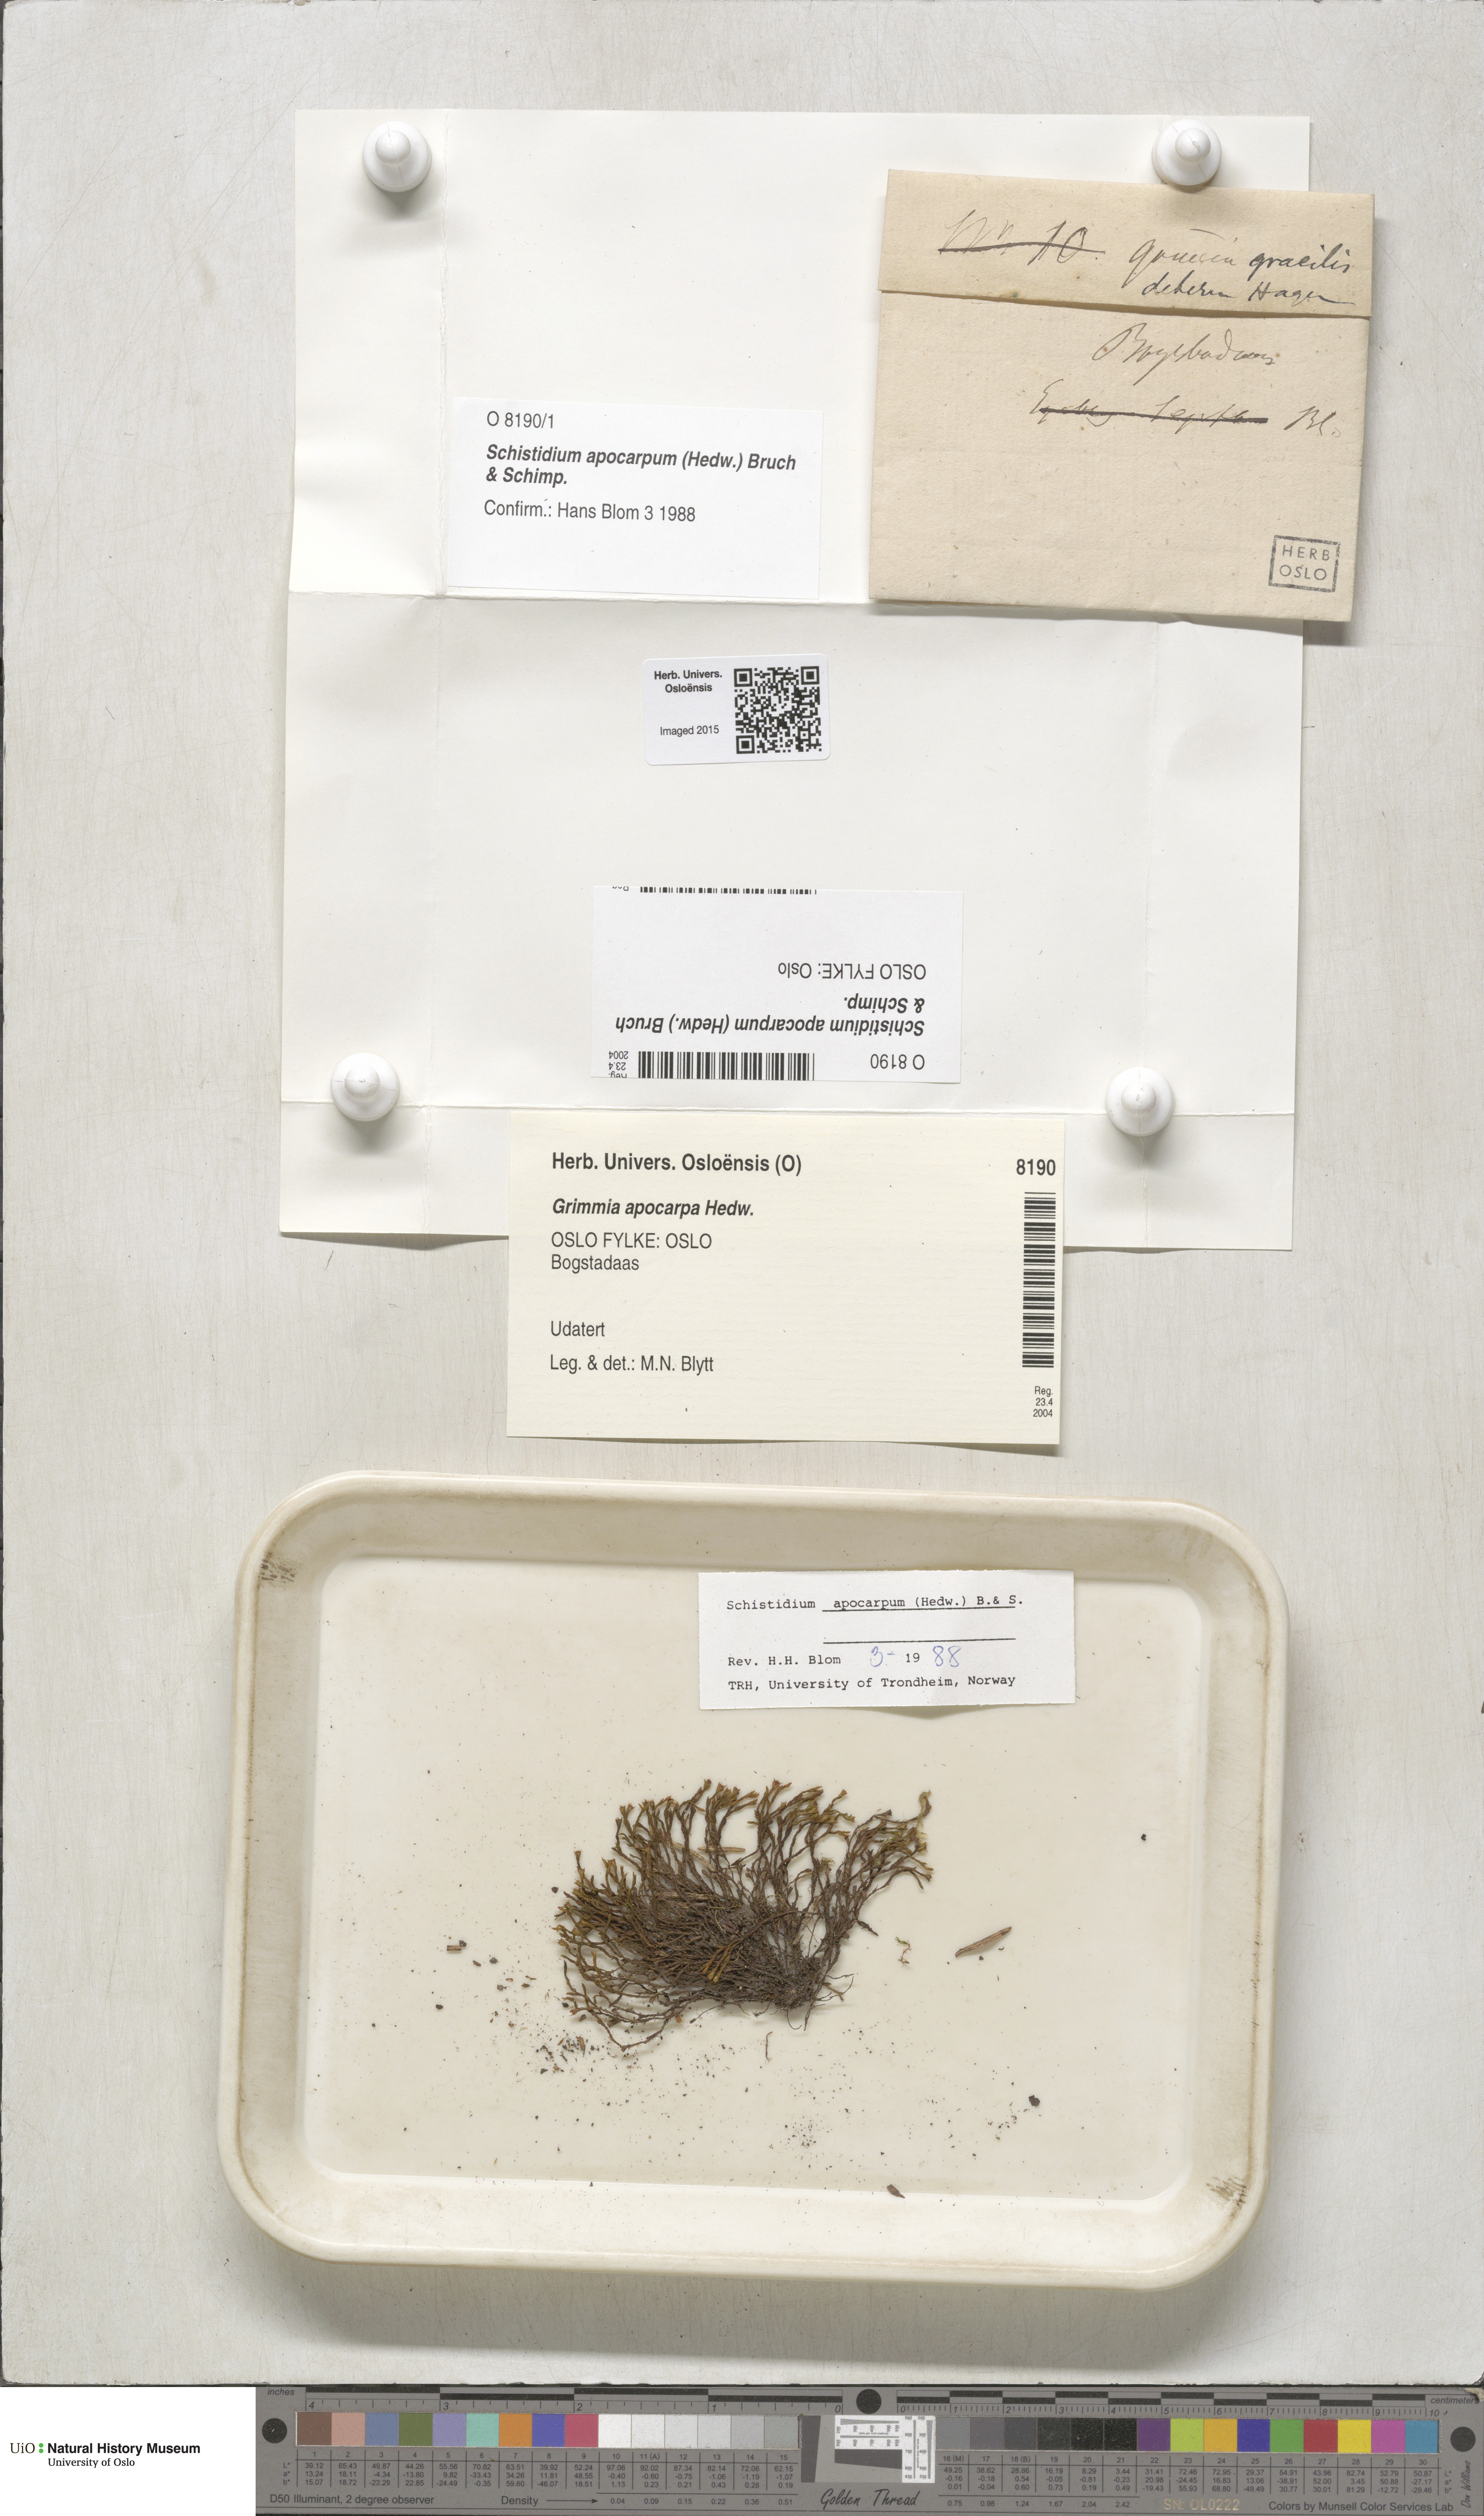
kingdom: Plantae
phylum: Bryophyta
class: Bryopsida
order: Grimmiales
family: Grimmiaceae
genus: Schistidium
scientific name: Schistidium apocarpum
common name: Radiate bloom moss
